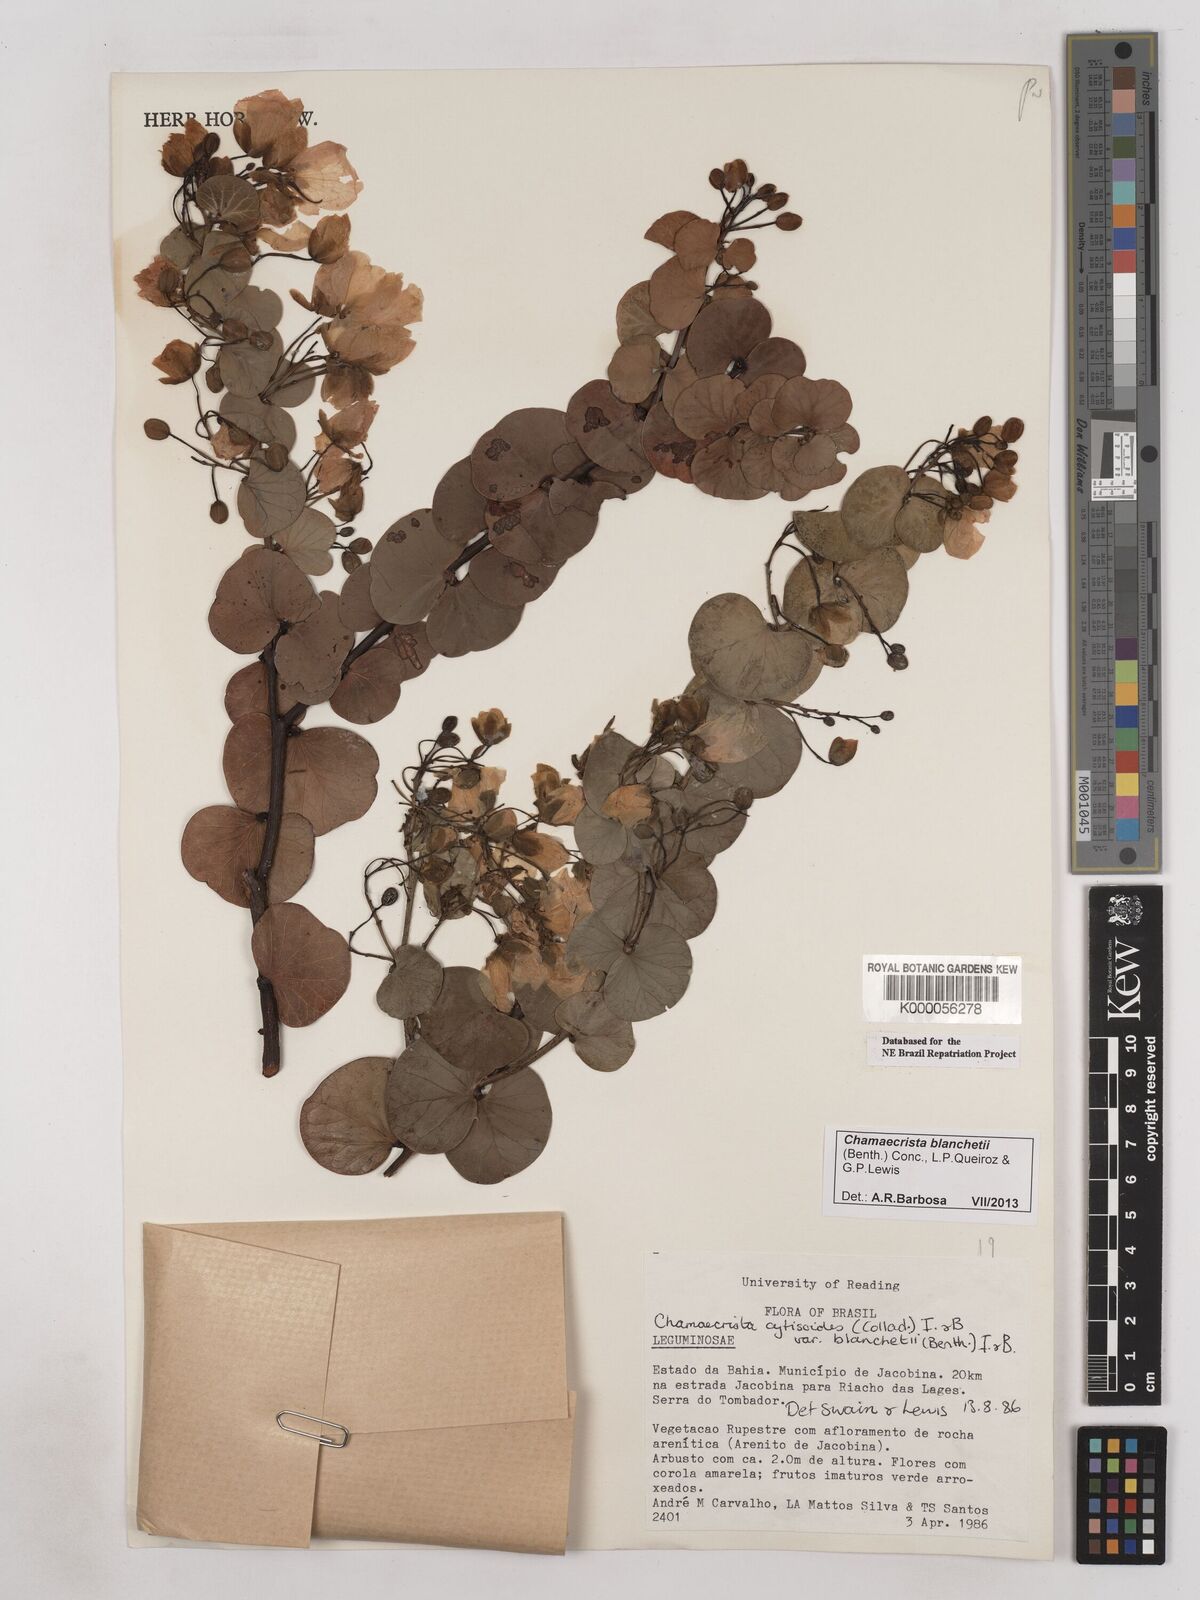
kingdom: Plantae
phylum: Tracheophyta
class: Magnoliopsida
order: Fabales
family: Fabaceae
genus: Chamaecrista
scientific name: Chamaecrista cytisoides
